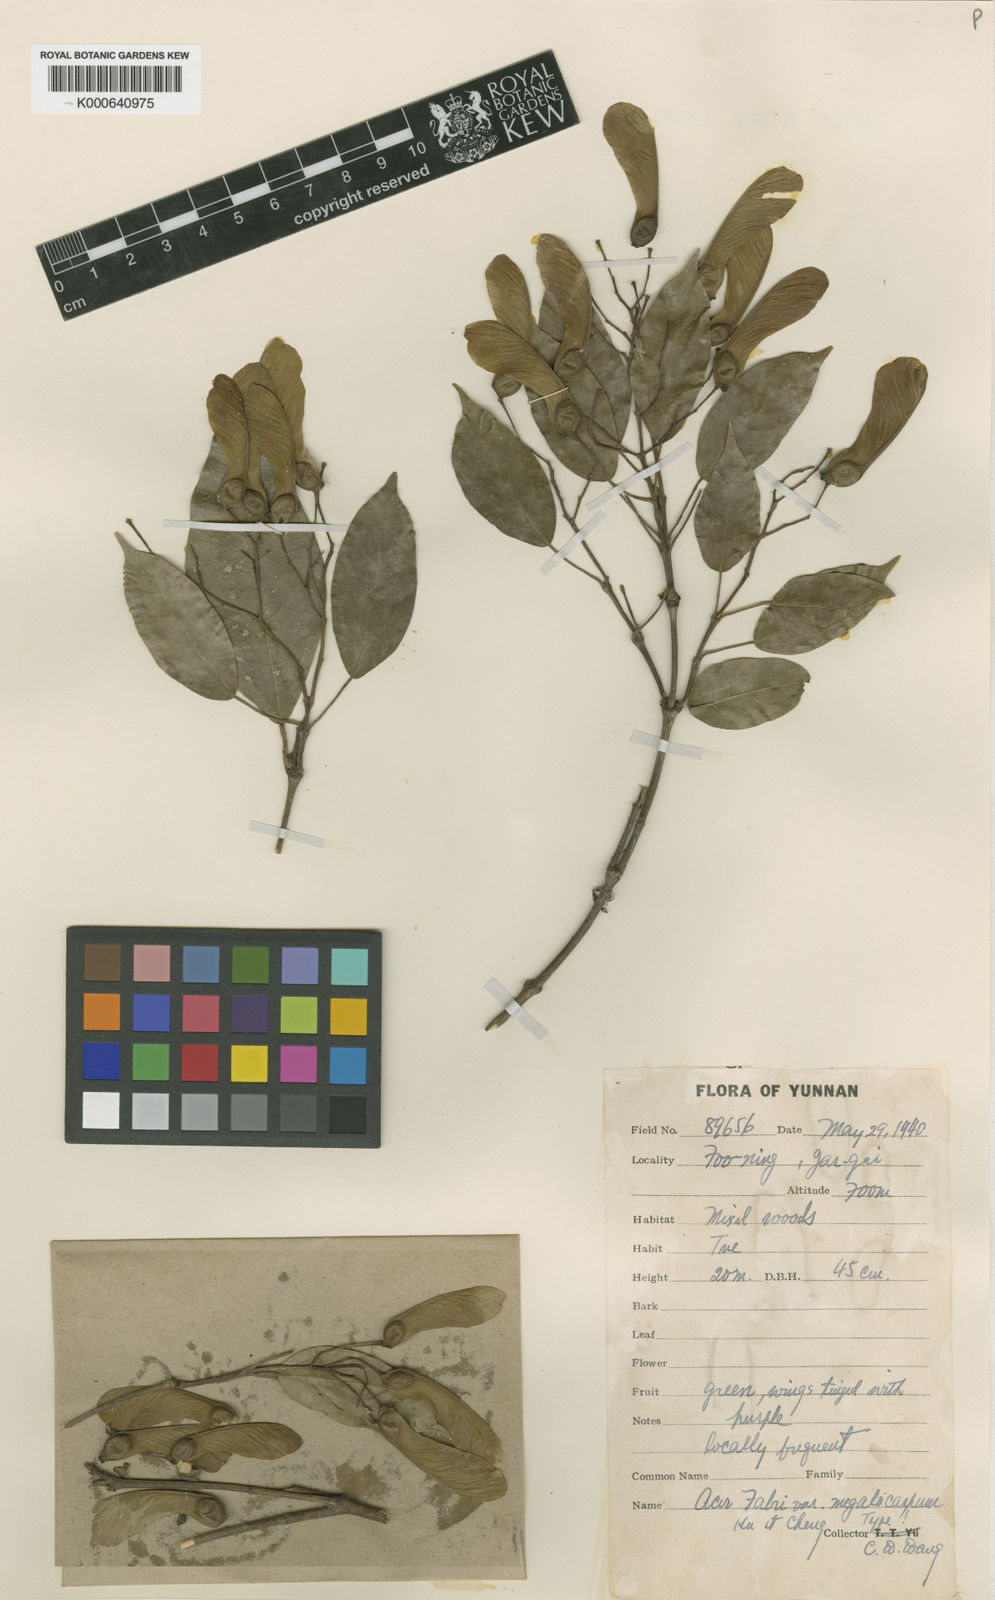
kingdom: Plantae
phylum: Tracheophyta
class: Magnoliopsida
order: Sapindales
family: Sapindaceae
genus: Acer
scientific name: Acer fabri
